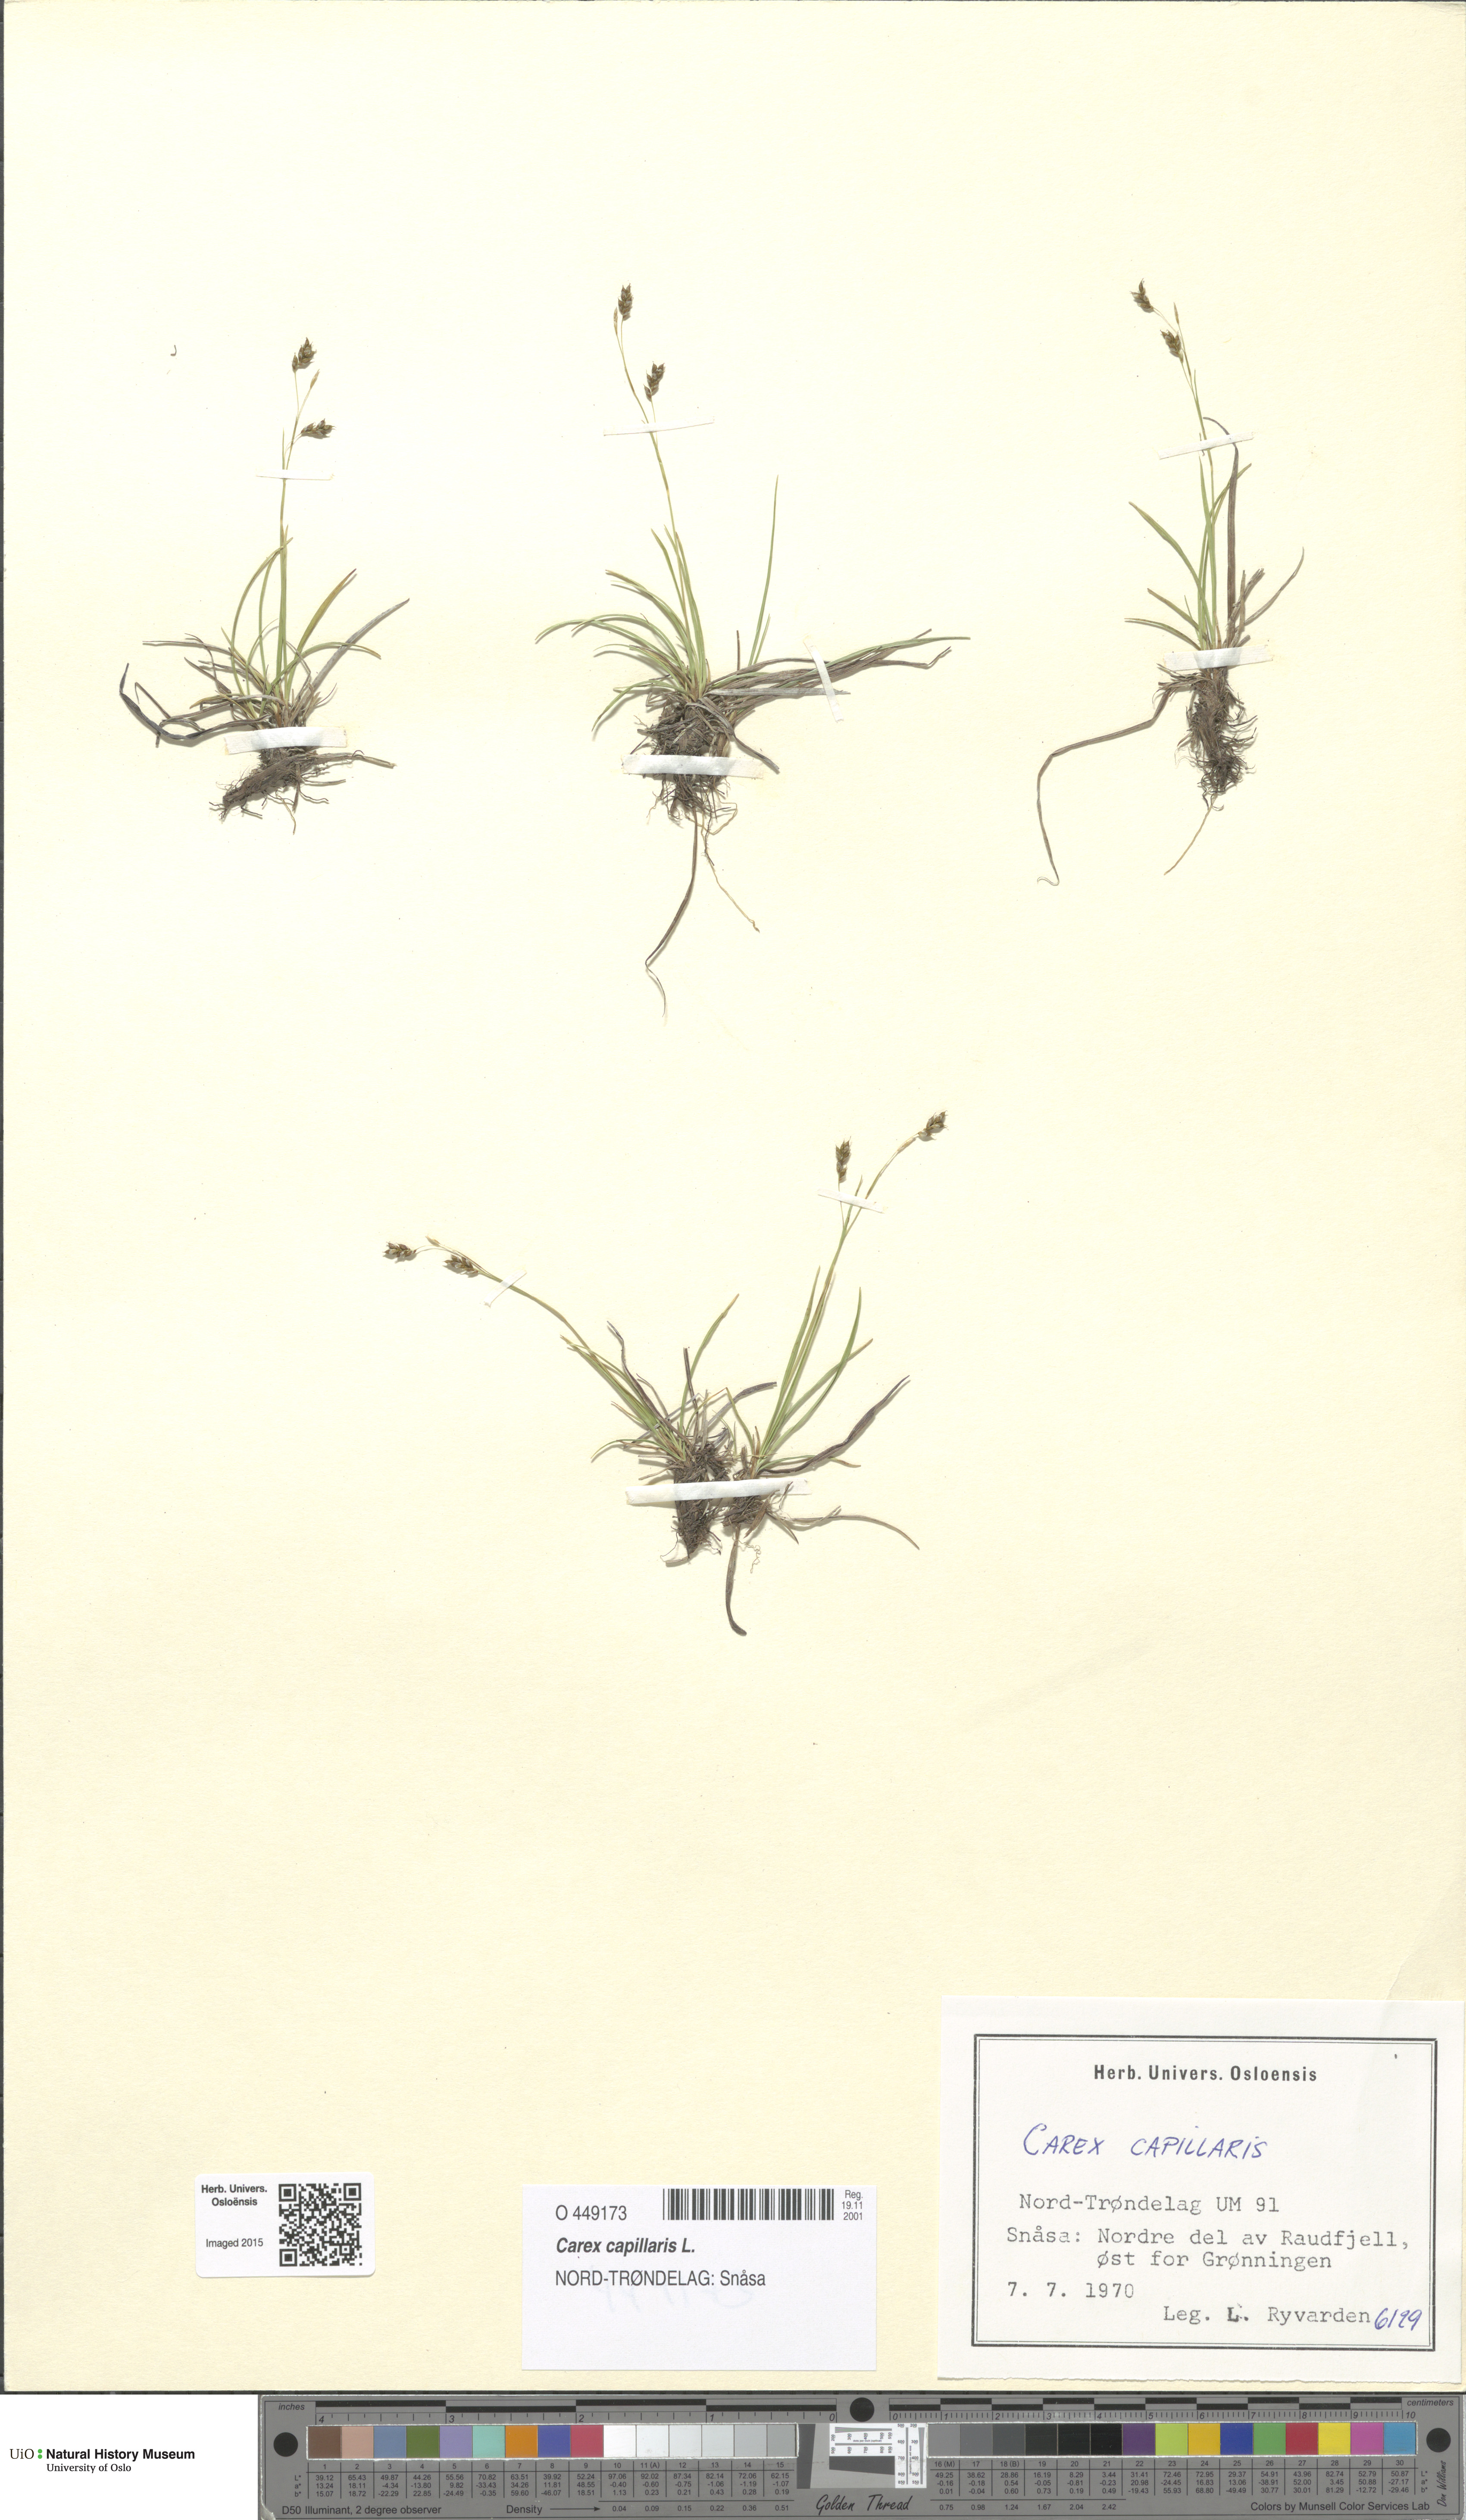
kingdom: Plantae
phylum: Tracheophyta
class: Liliopsida
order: Poales
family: Cyperaceae
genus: Carex
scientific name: Carex capillaris
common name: Hair sedge
